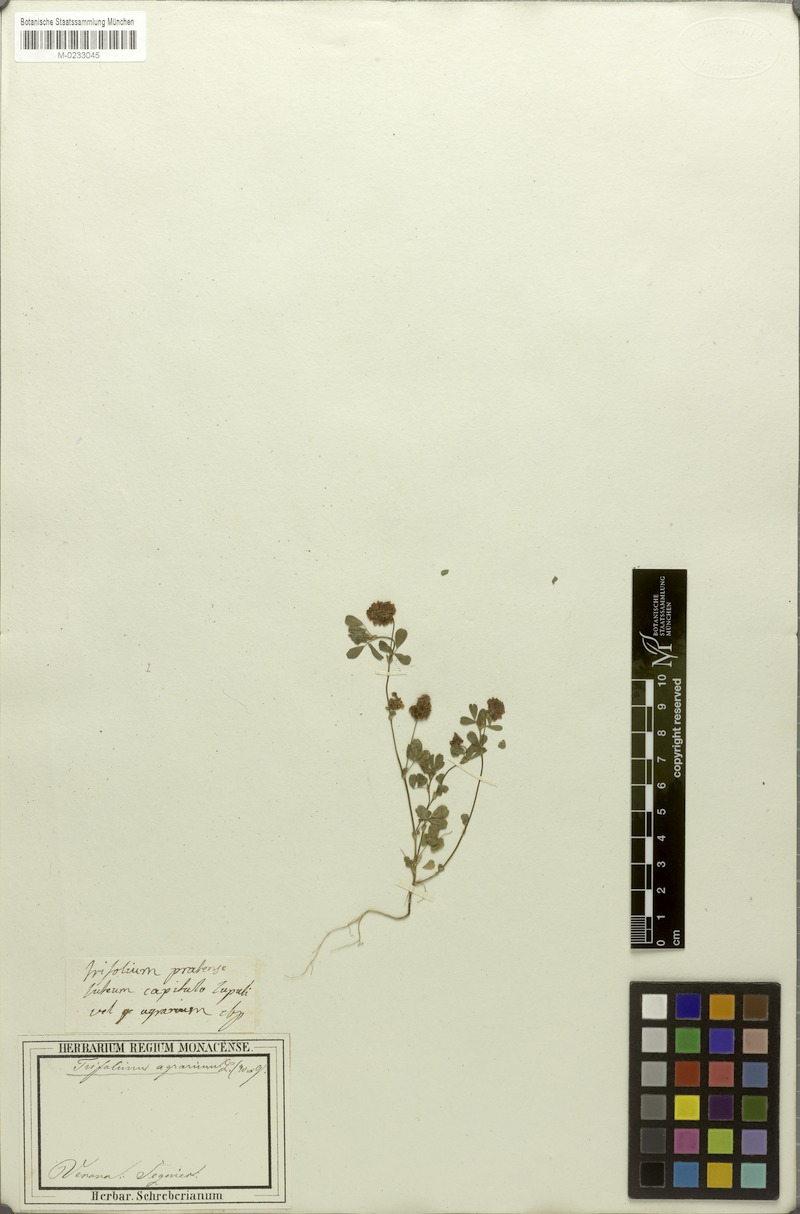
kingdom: Plantae
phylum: Tracheophyta
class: Magnoliopsida
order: Fabales
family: Fabaceae
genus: Trifolium
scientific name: Trifolium campestre
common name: Field clover
